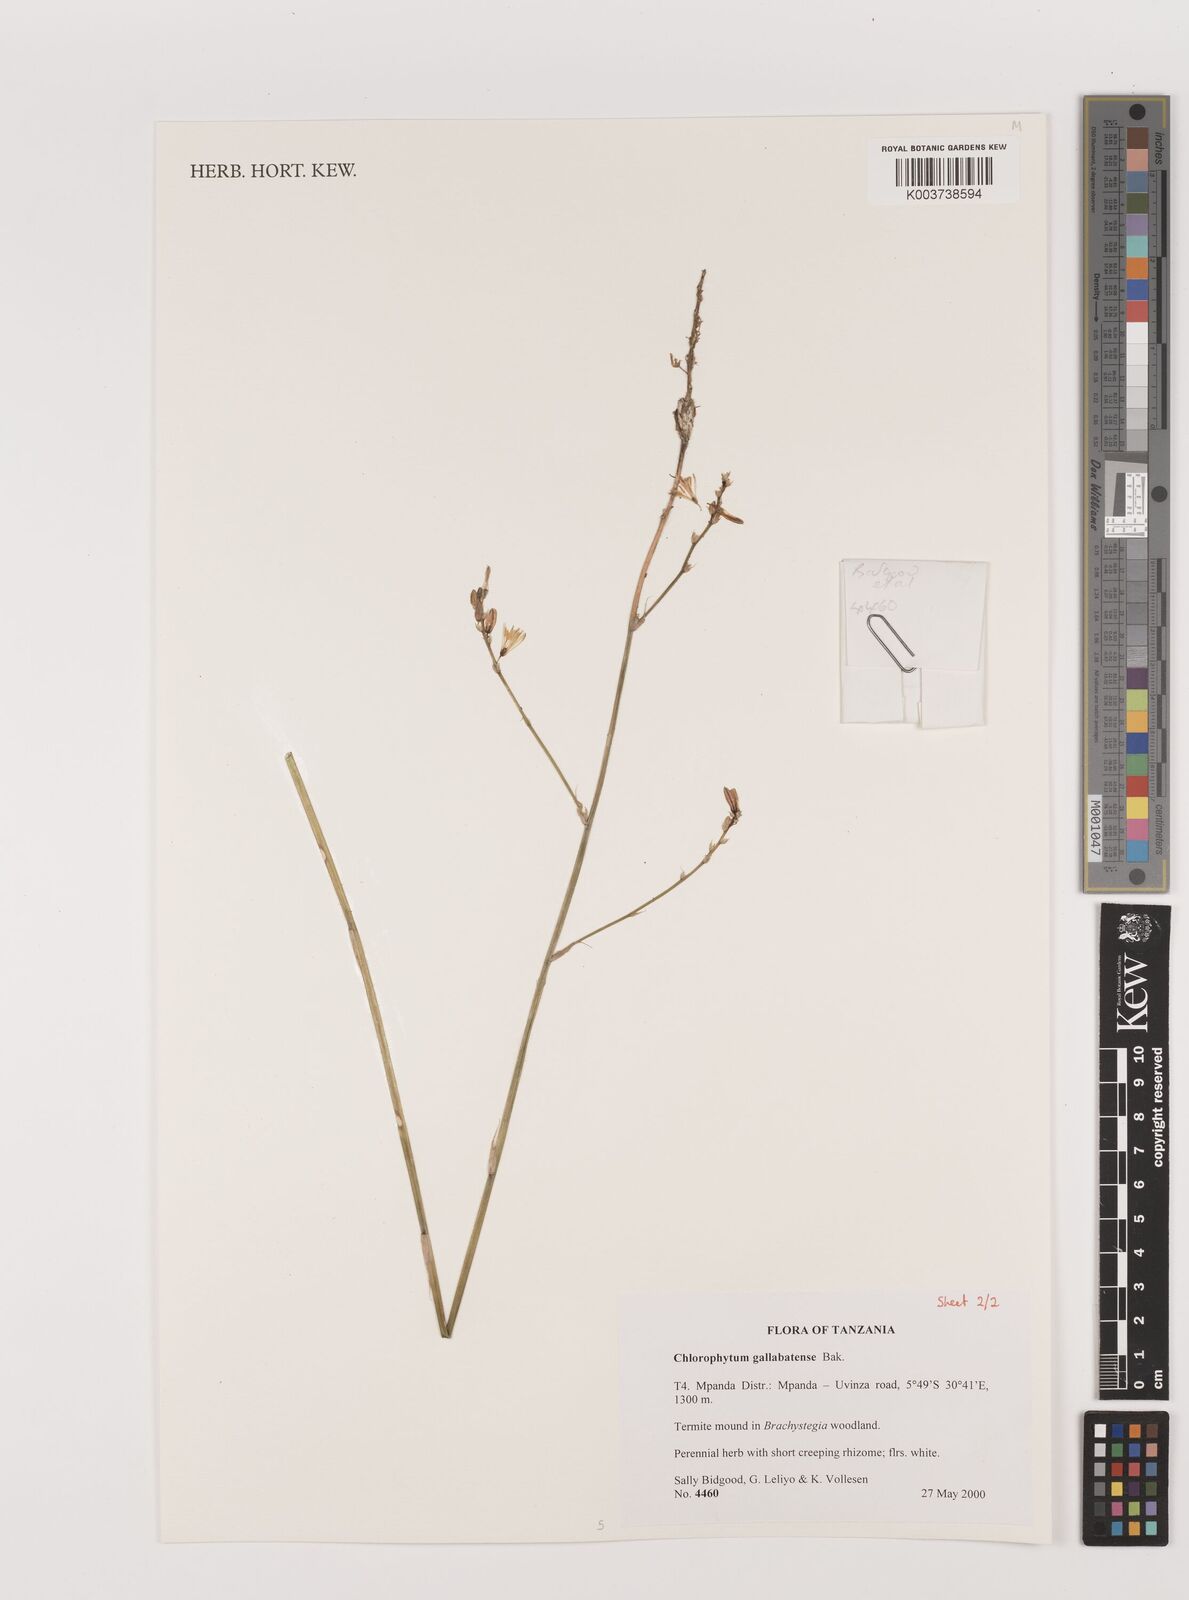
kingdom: Plantae
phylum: Tracheophyta
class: Liliopsida
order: Asparagales
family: Asparagaceae
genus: Chlorophytum
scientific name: Chlorophytum gallabatense
